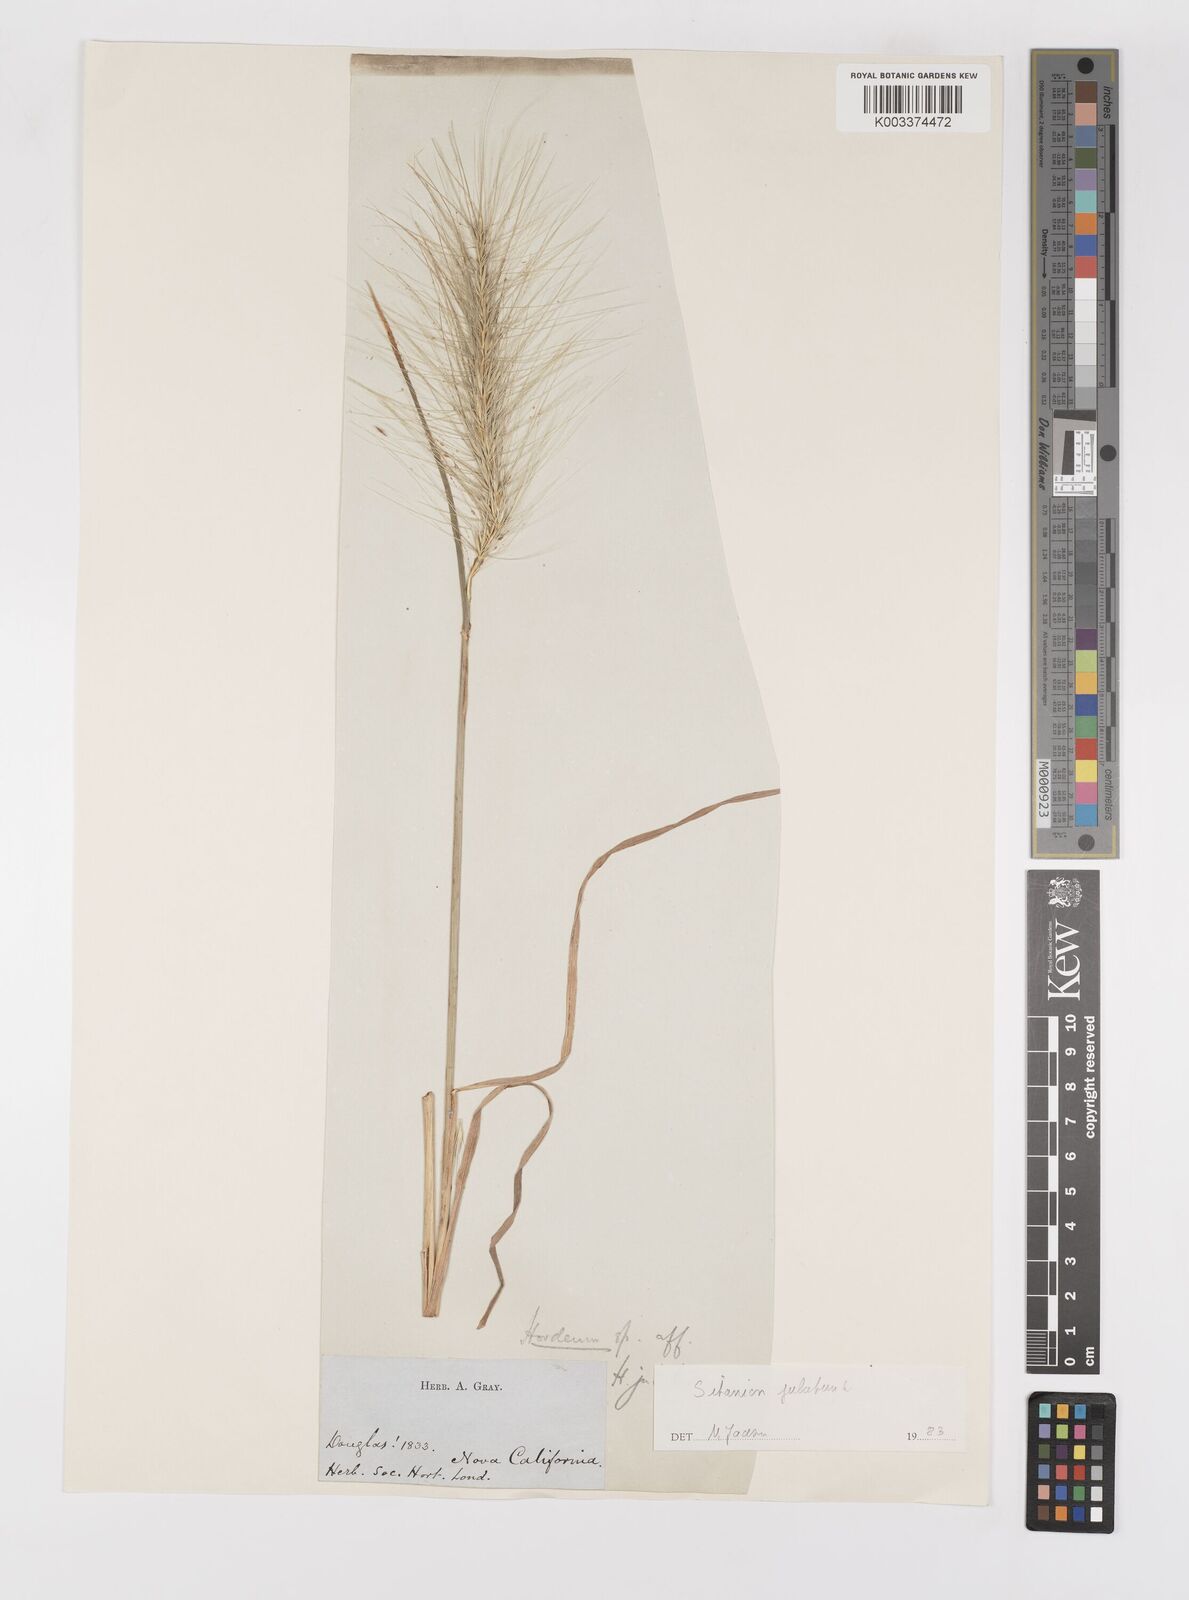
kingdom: Plantae
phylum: Tracheophyta
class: Liliopsida
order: Poales
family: Poaceae
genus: Elymus
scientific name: Elymus multisetus
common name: Big squirreltail
